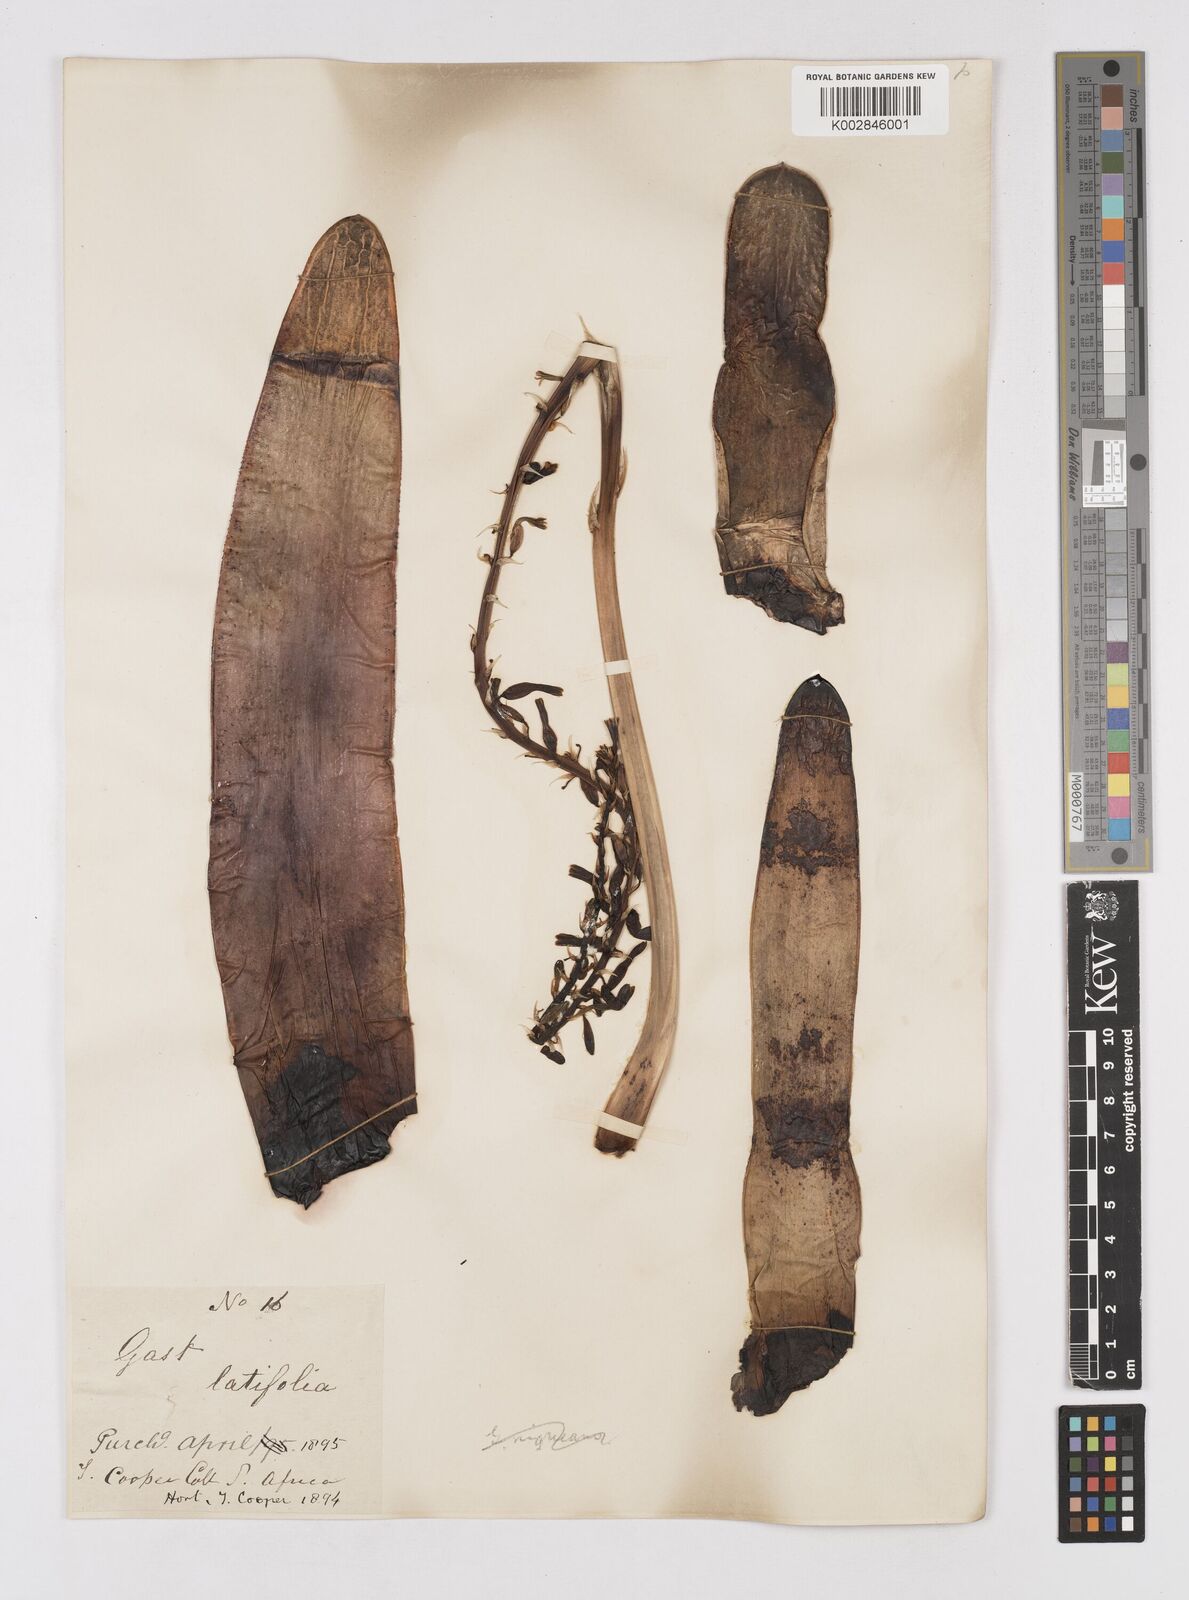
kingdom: Plantae
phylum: Tracheophyta
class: Liliopsida
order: Asparagales
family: Asphodelaceae
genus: Gasteria
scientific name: Gasteria disticha
